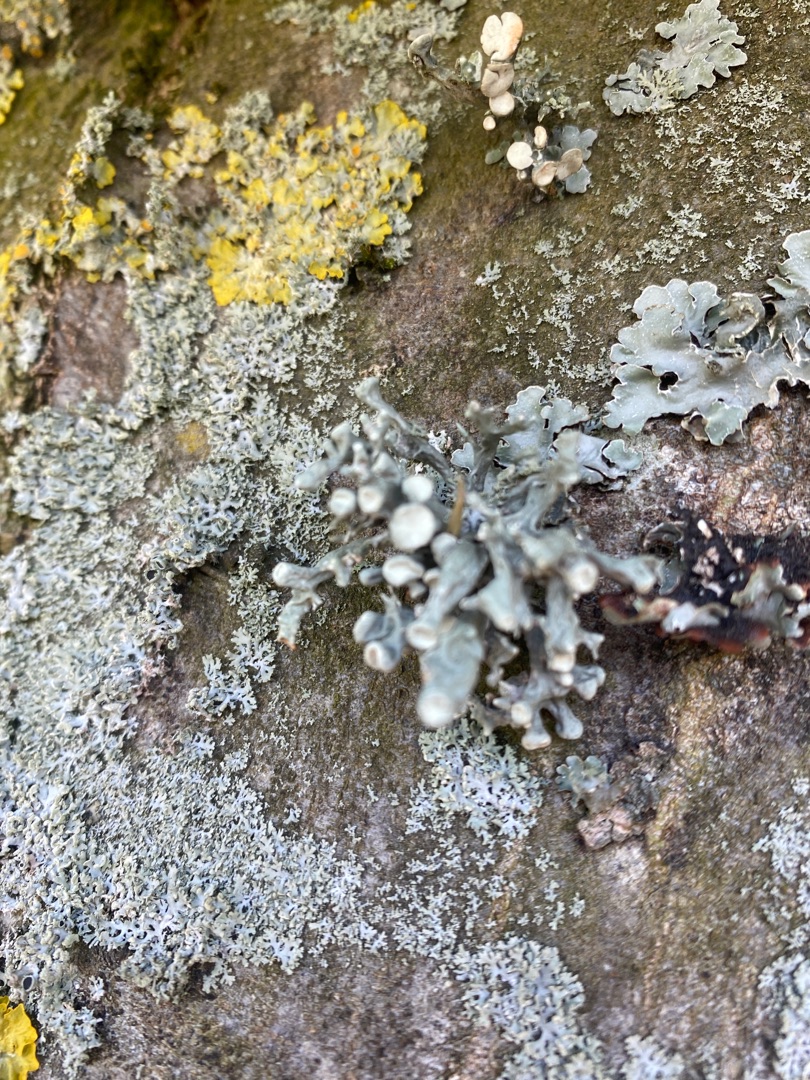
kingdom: Fungi
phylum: Ascomycota
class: Lecanoromycetes
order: Lecanorales
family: Ramalinaceae
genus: Ramalina
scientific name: Ramalina fastigiata
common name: Tue-grenlav
